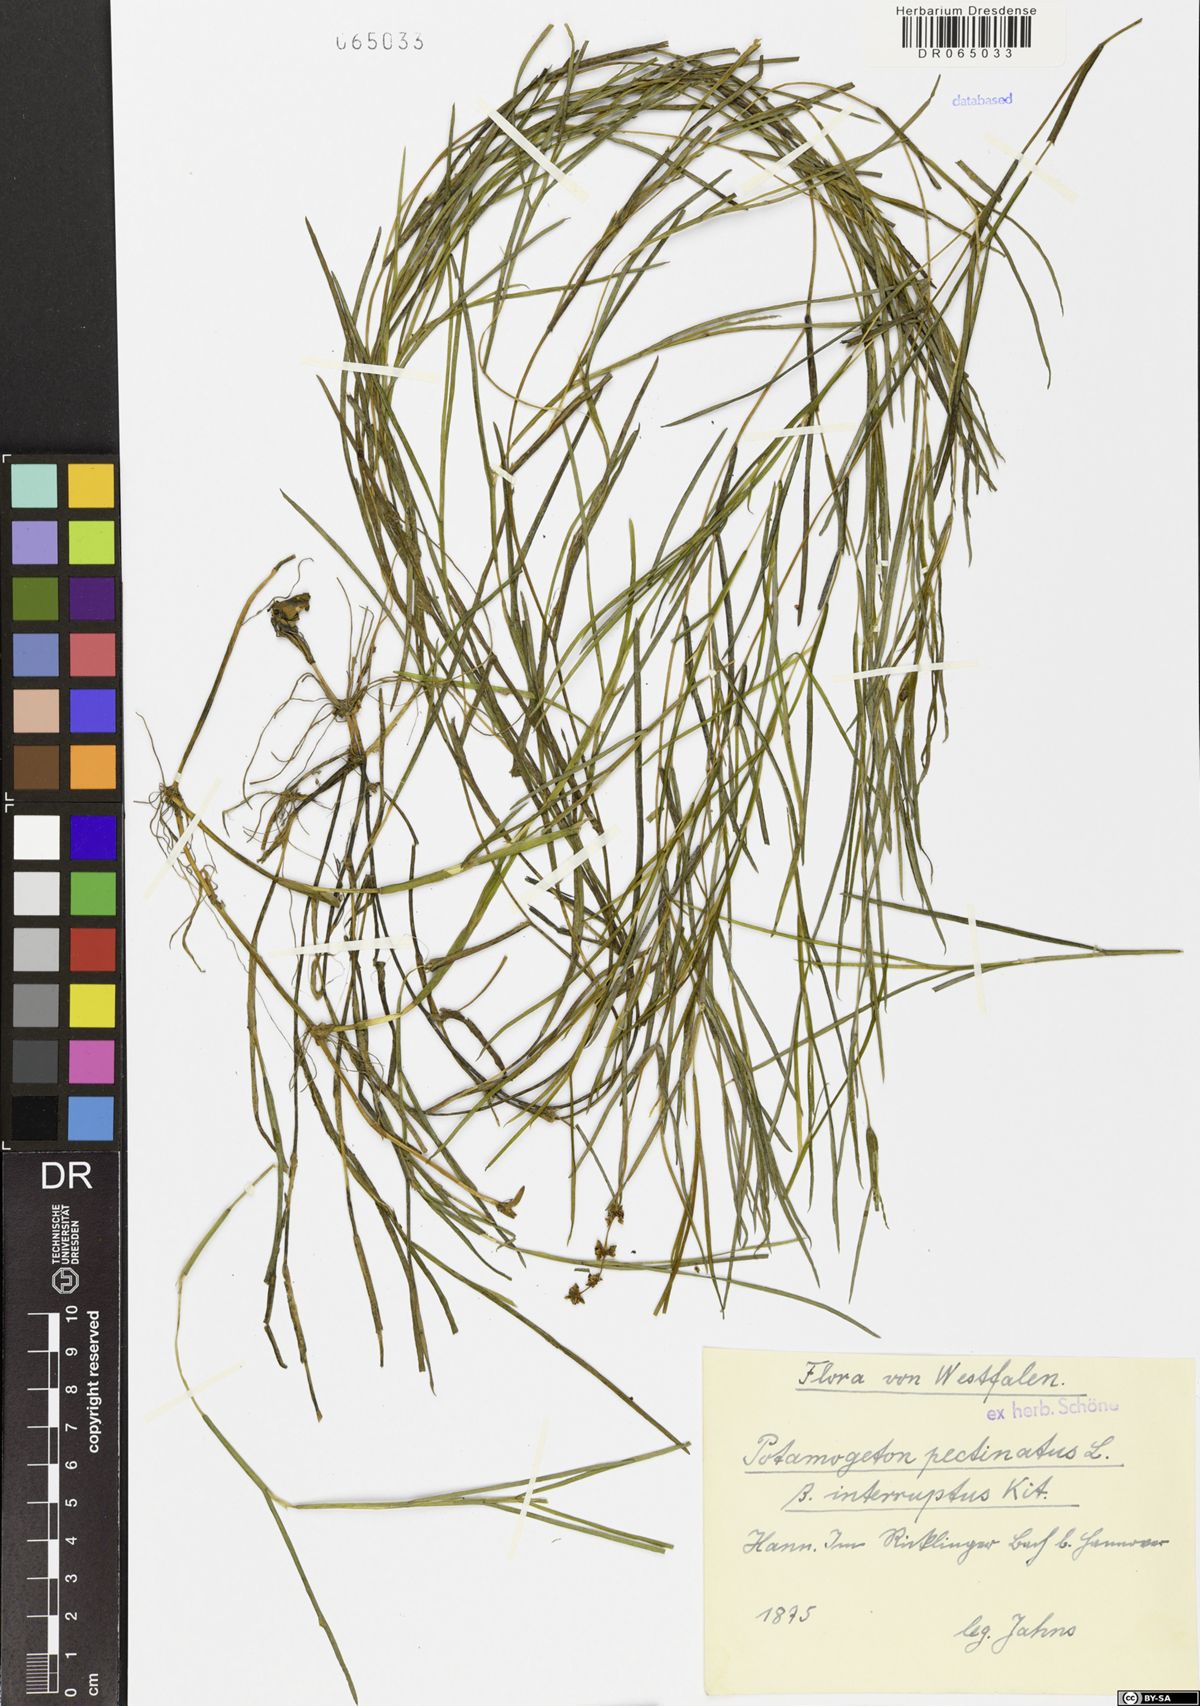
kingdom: Plantae
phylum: Tracheophyta
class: Liliopsida
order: Alismatales
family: Potamogetonaceae
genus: Stuckenia
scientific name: Stuckenia pectinata
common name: Sago pondweed
